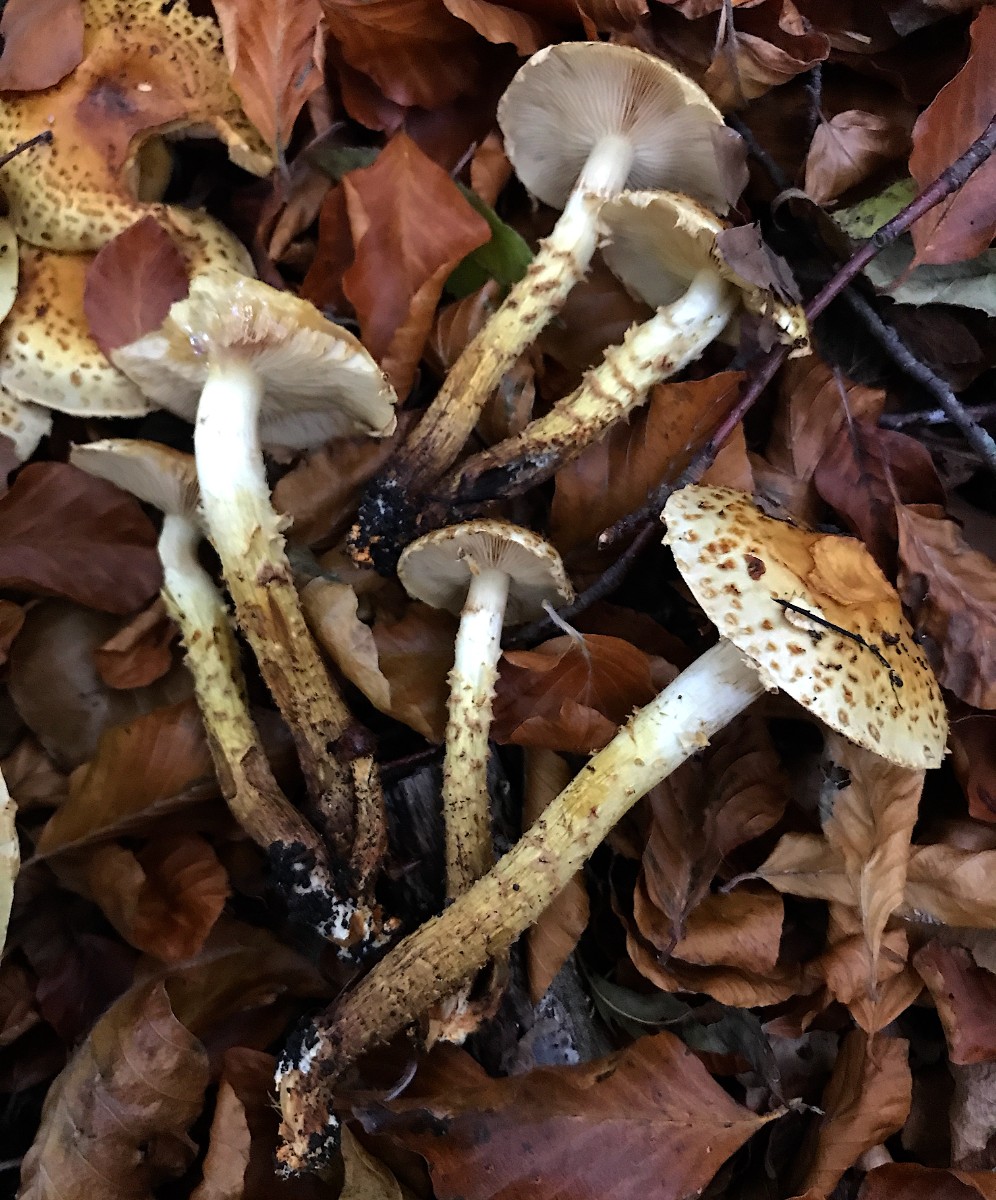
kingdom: Fungi
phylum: Basidiomycota
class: Agaricomycetes
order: Agaricales
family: Strophariaceae
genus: Pholiota
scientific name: Pholiota jahnii
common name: slimet skælhat
